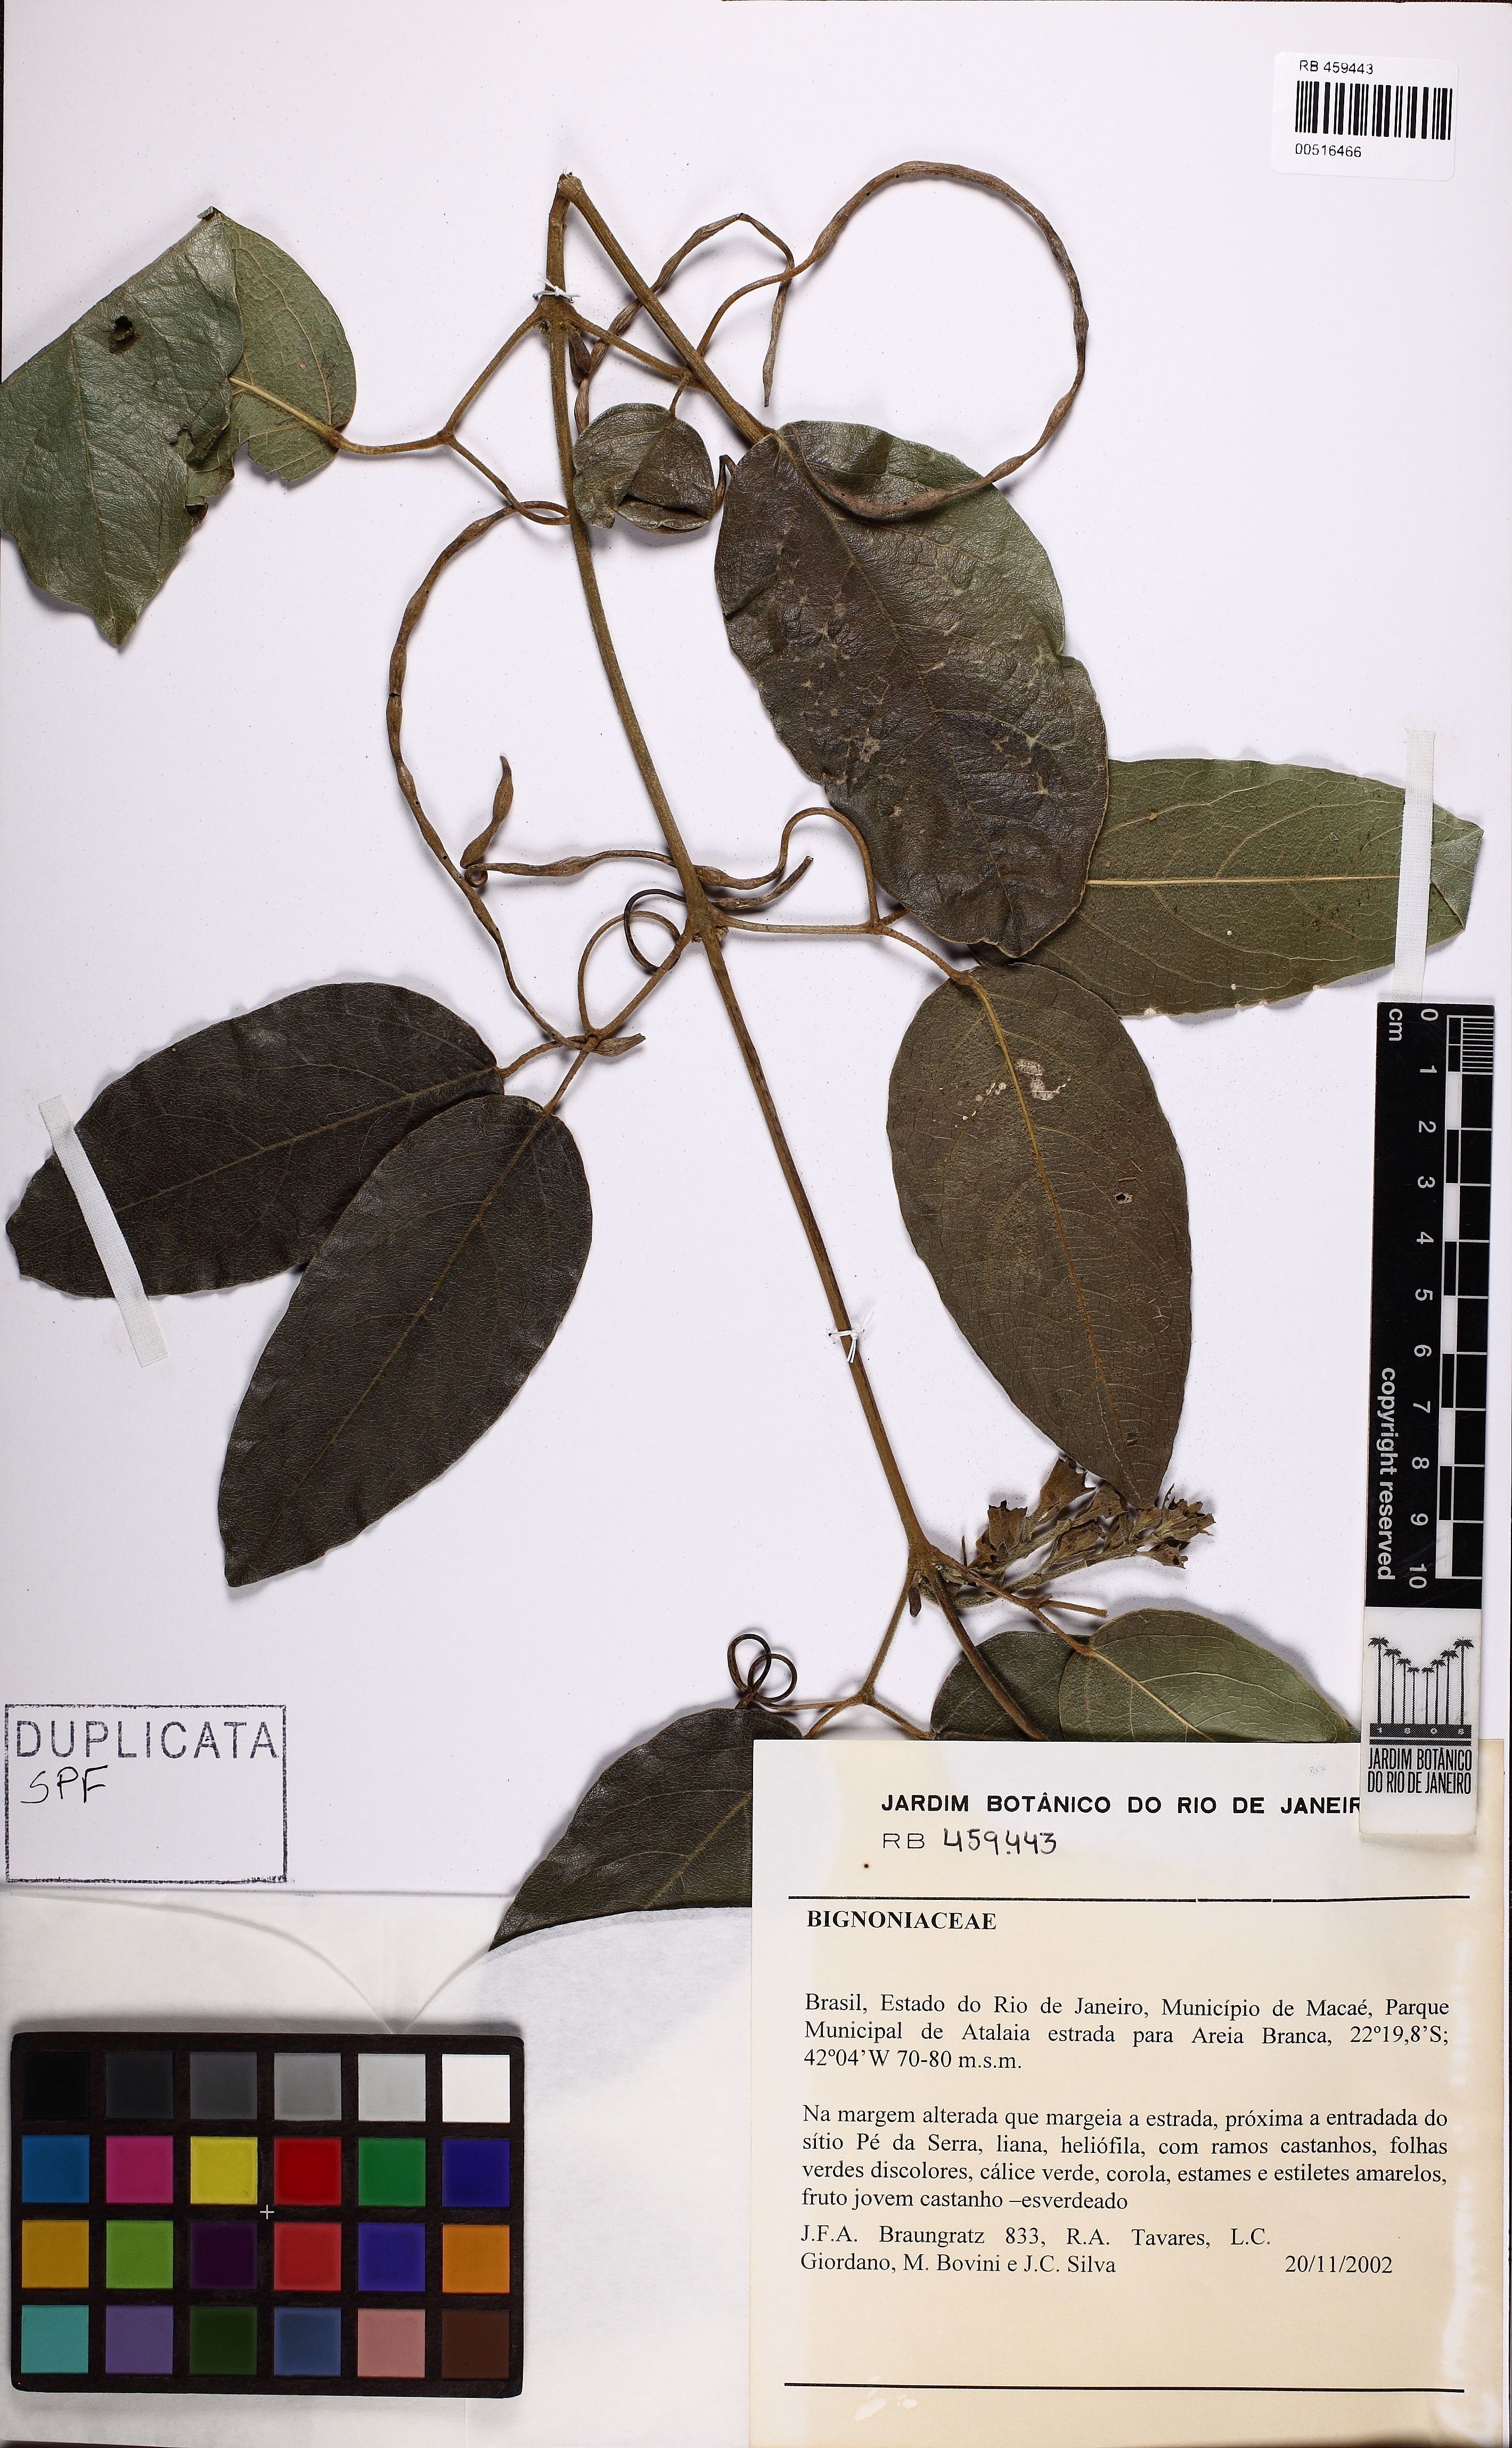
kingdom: Plantae
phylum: Tracheophyta
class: Magnoliopsida
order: Lamiales
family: Bignoniaceae
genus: Adenocalymma
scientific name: Adenocalymma bracteatum
